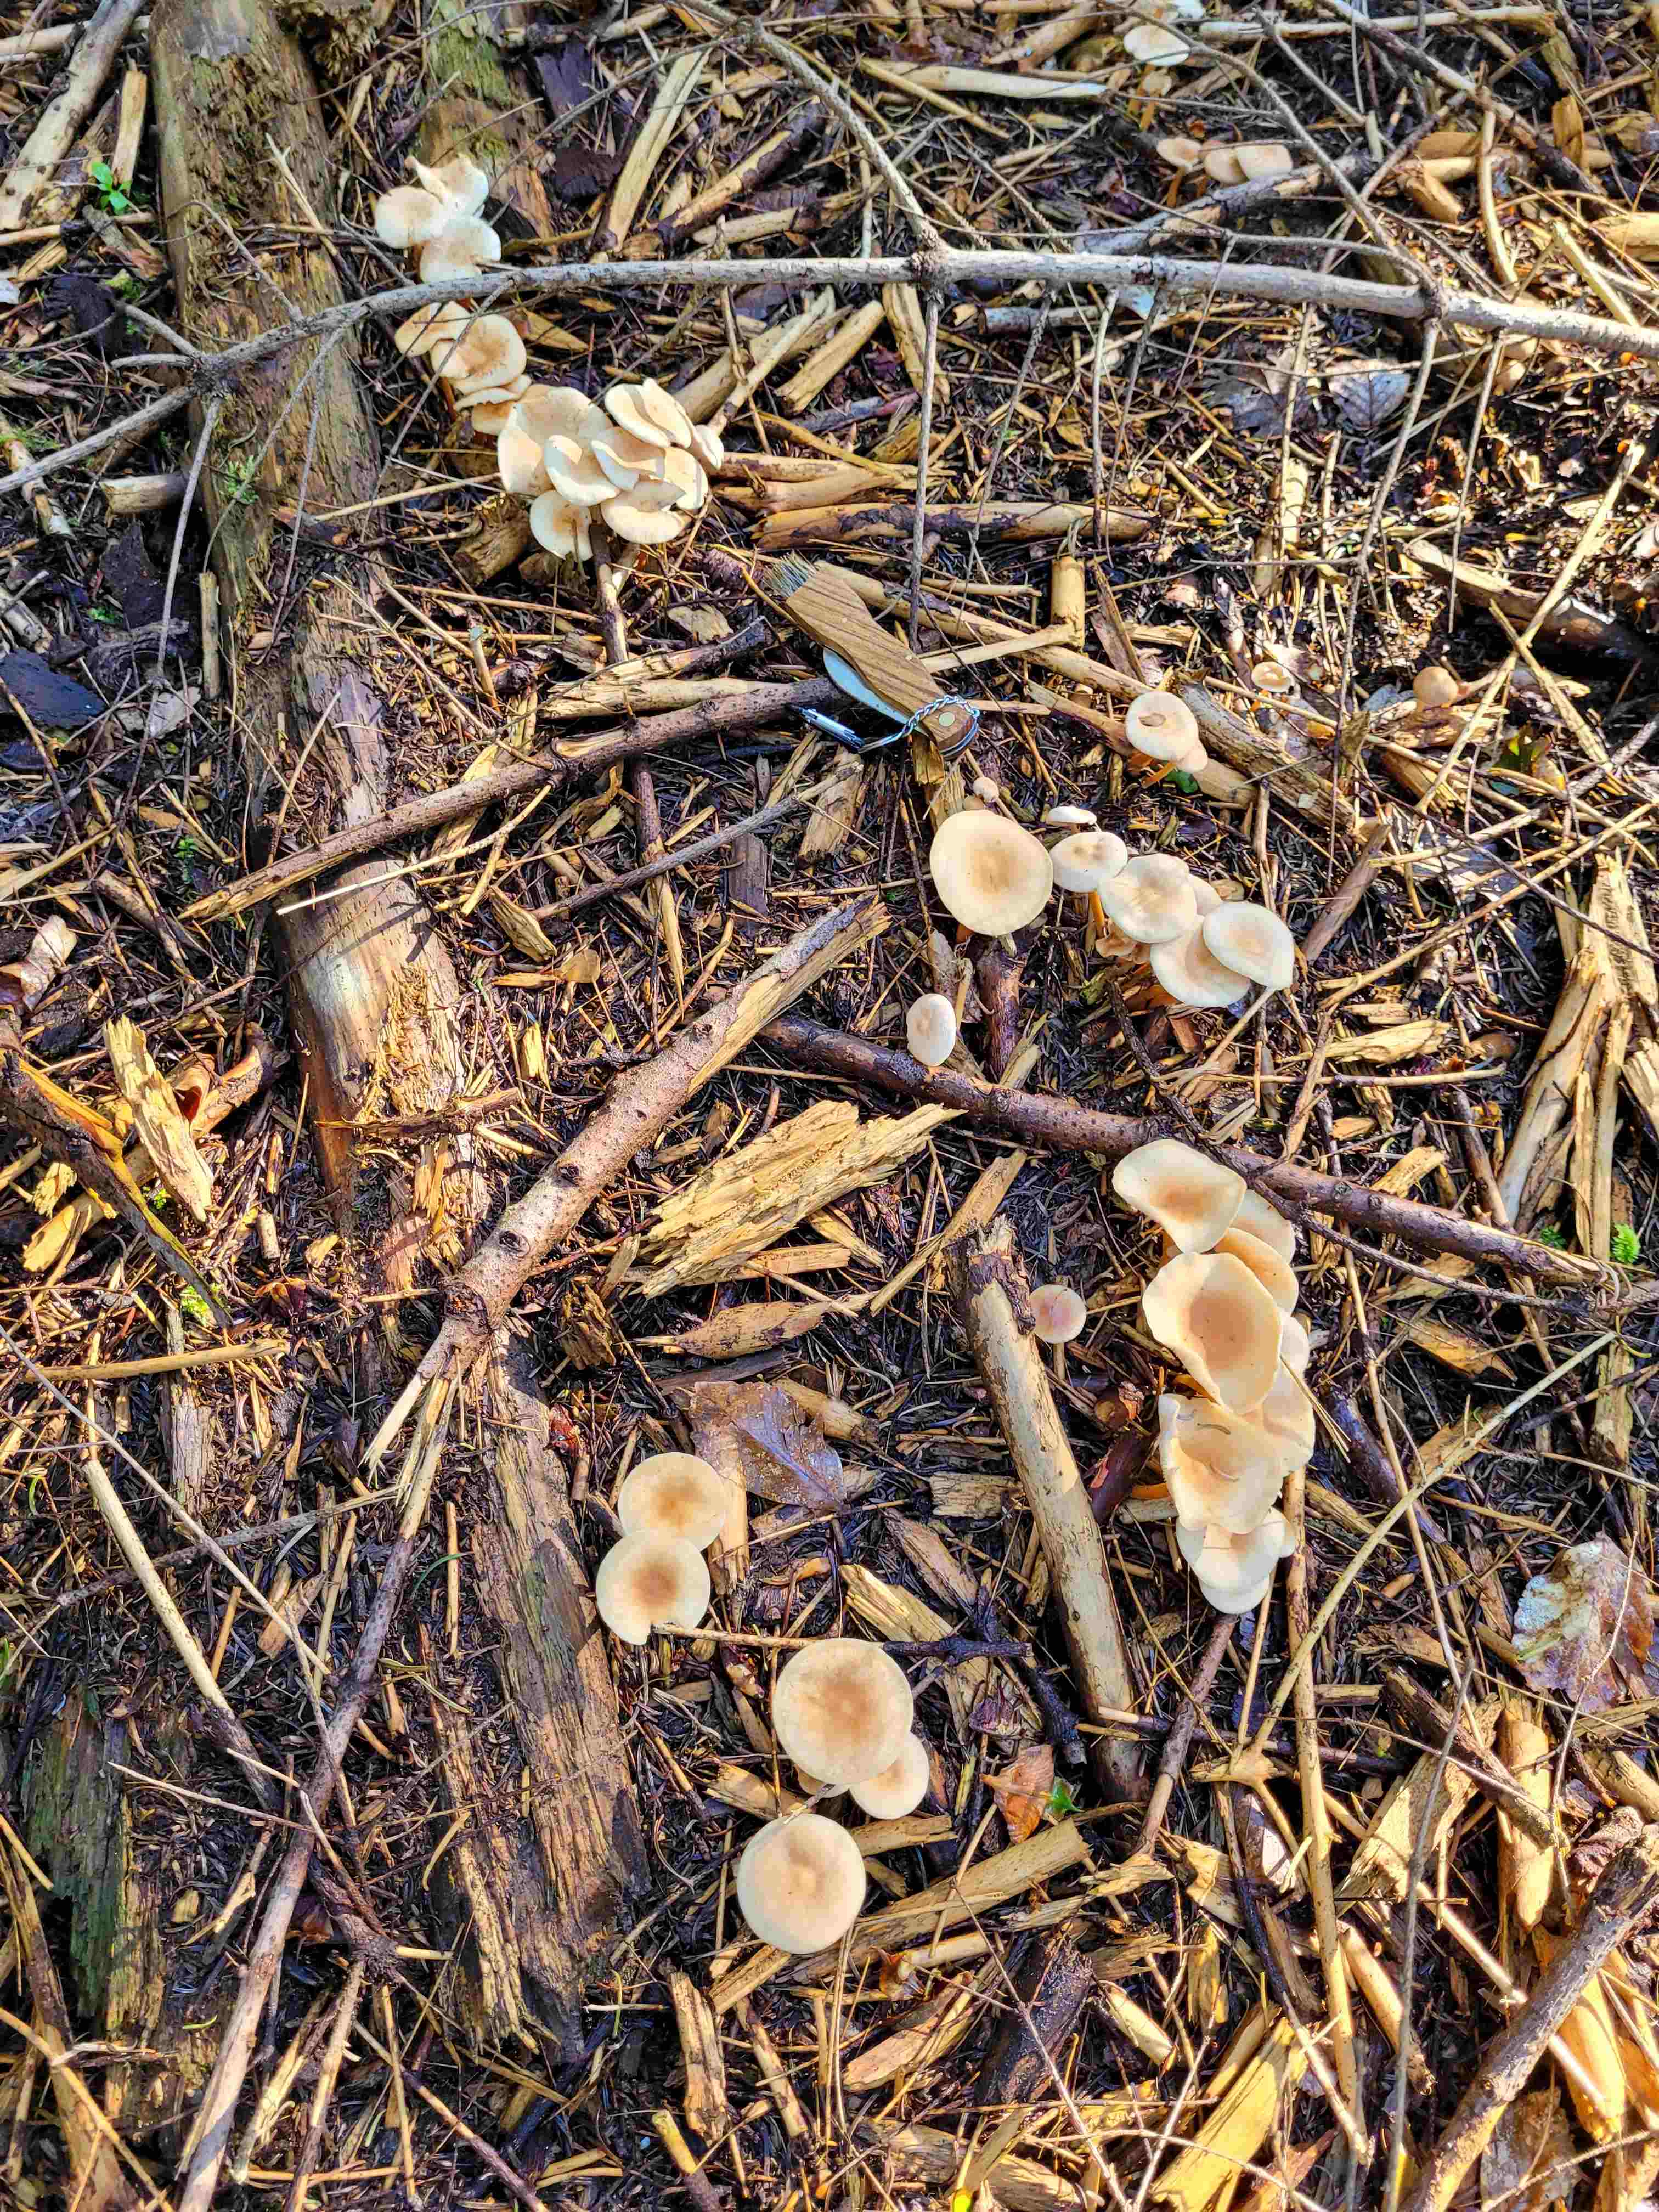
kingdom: Fungi
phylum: Basidiomycota
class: Agaricomycetes
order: Agaricales
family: Omphalotaceae
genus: Gymnopus
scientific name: Gymnopus
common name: fladhat
